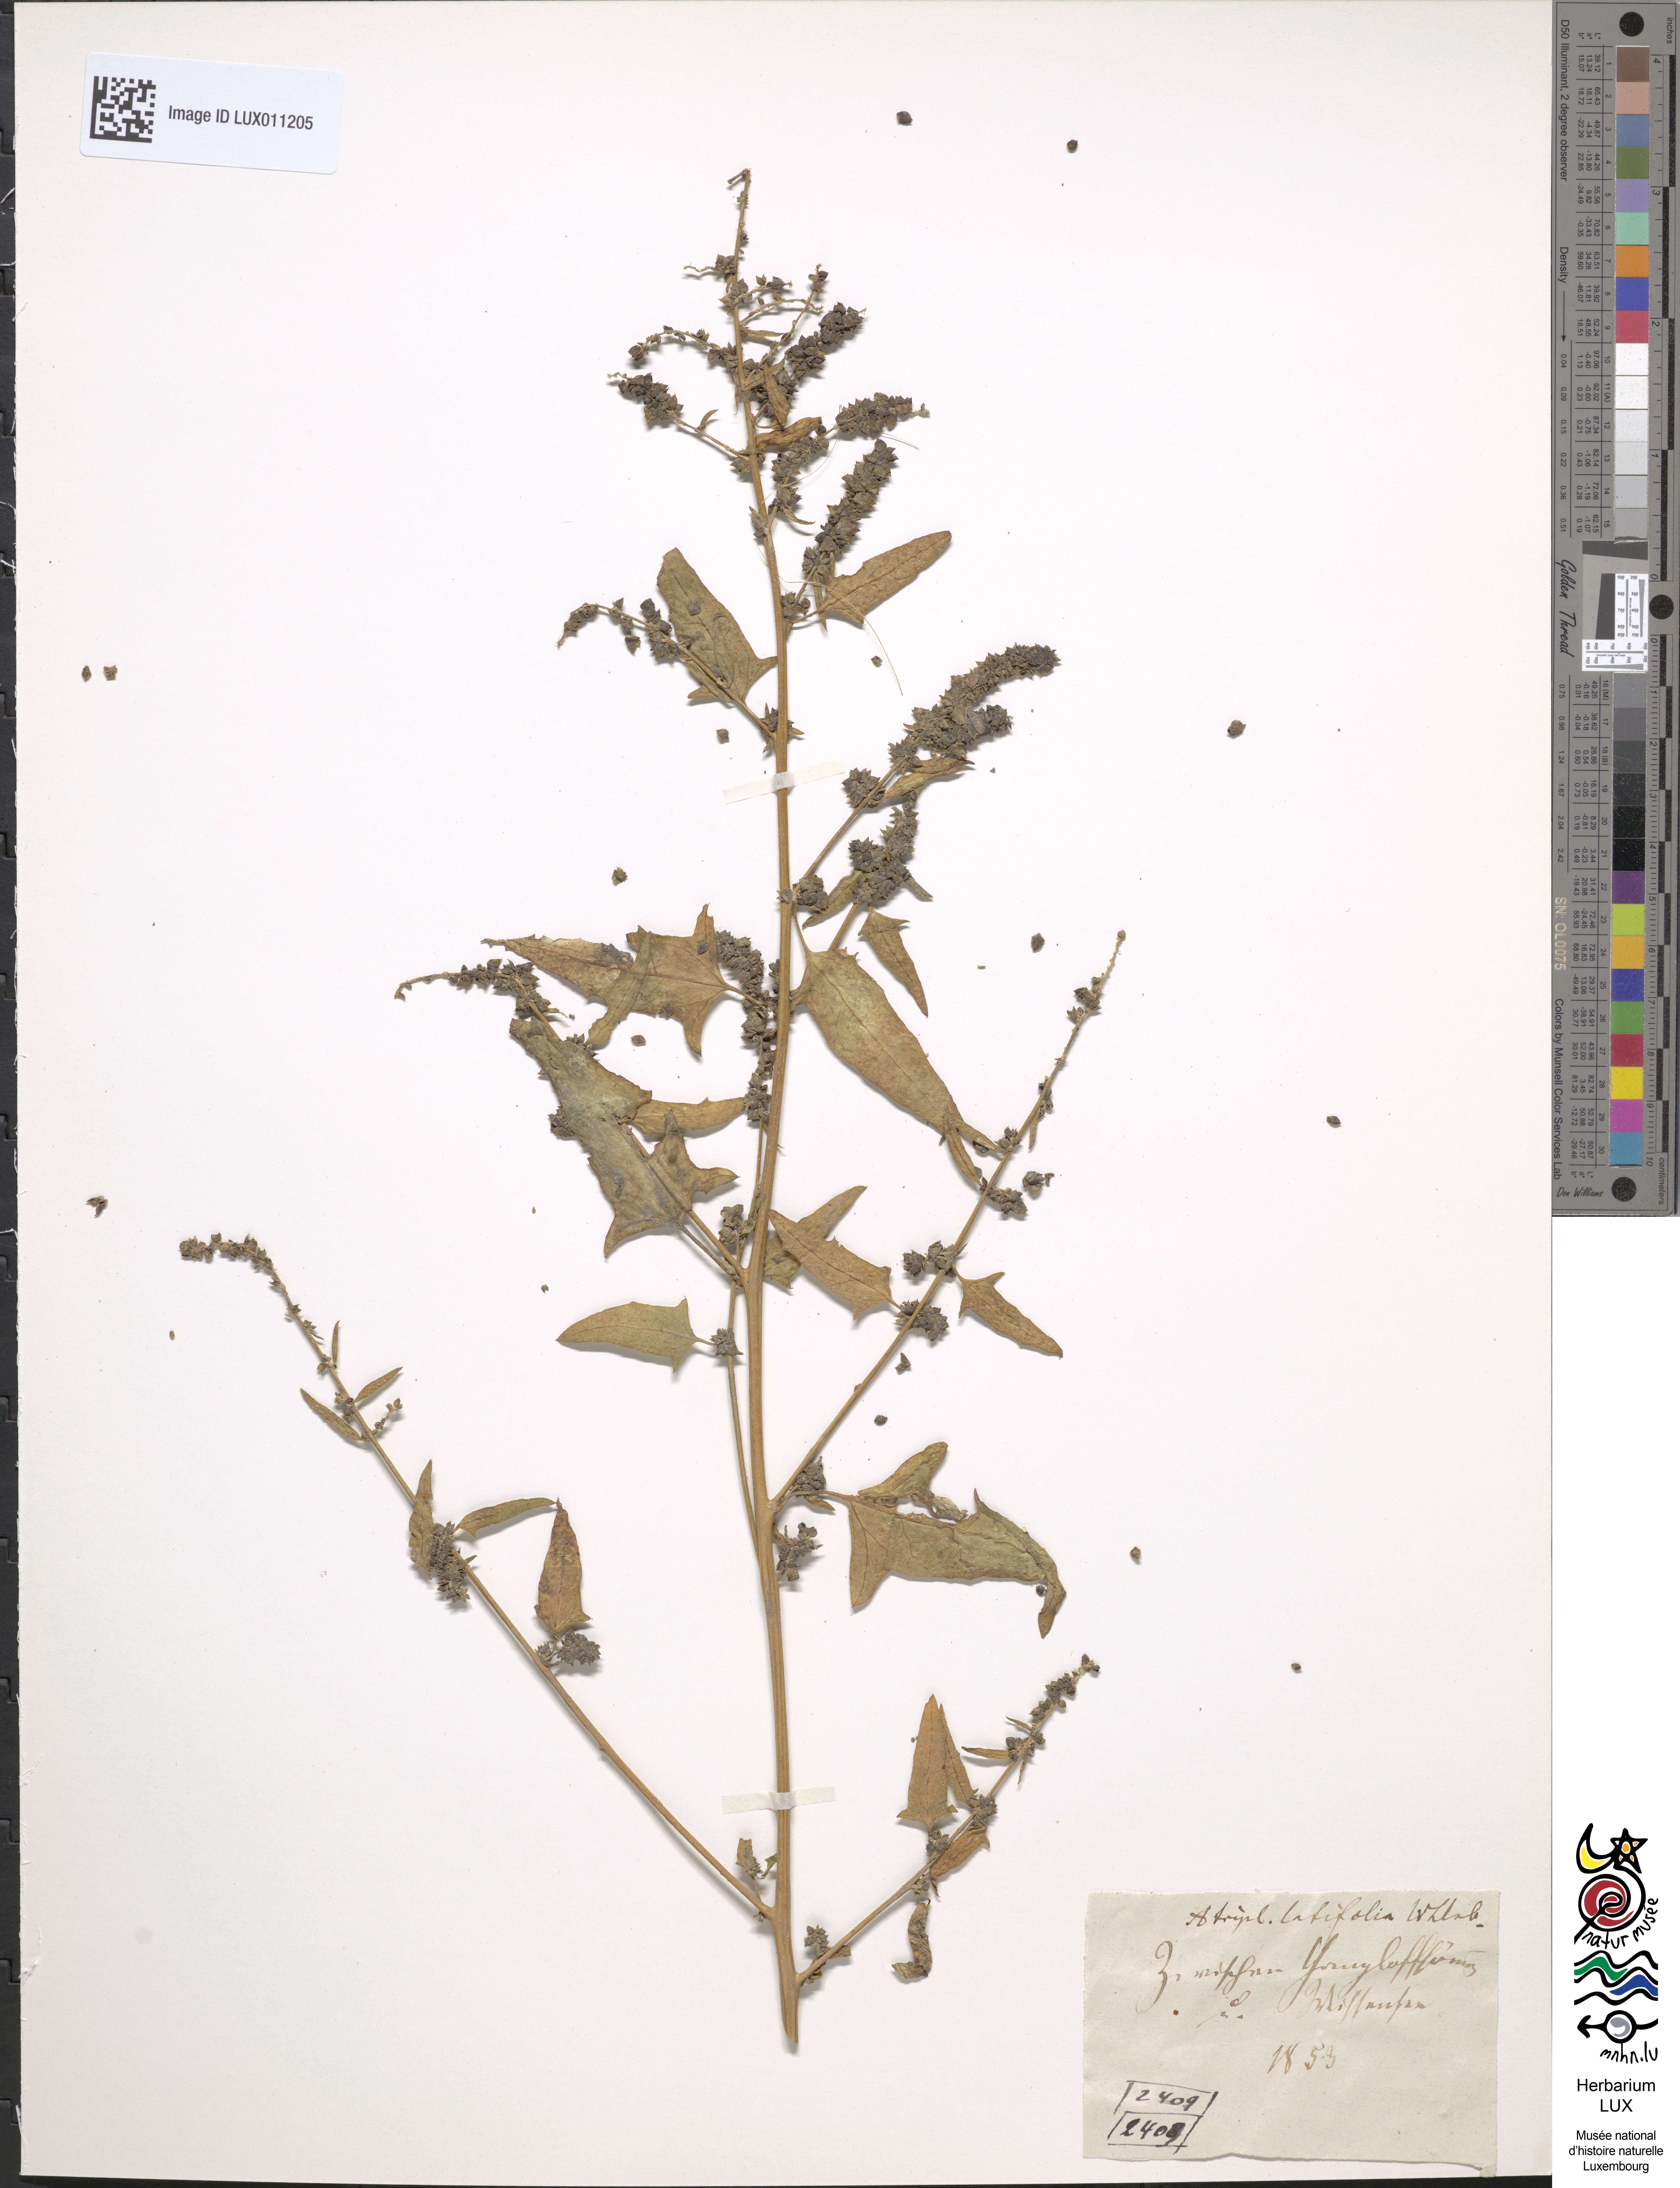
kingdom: Plantae
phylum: Tracheophyta
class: Magnoliopsida
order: Caryophyllales
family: Amaranthaceae
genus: Atriplex
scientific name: Atriplex calotheca
